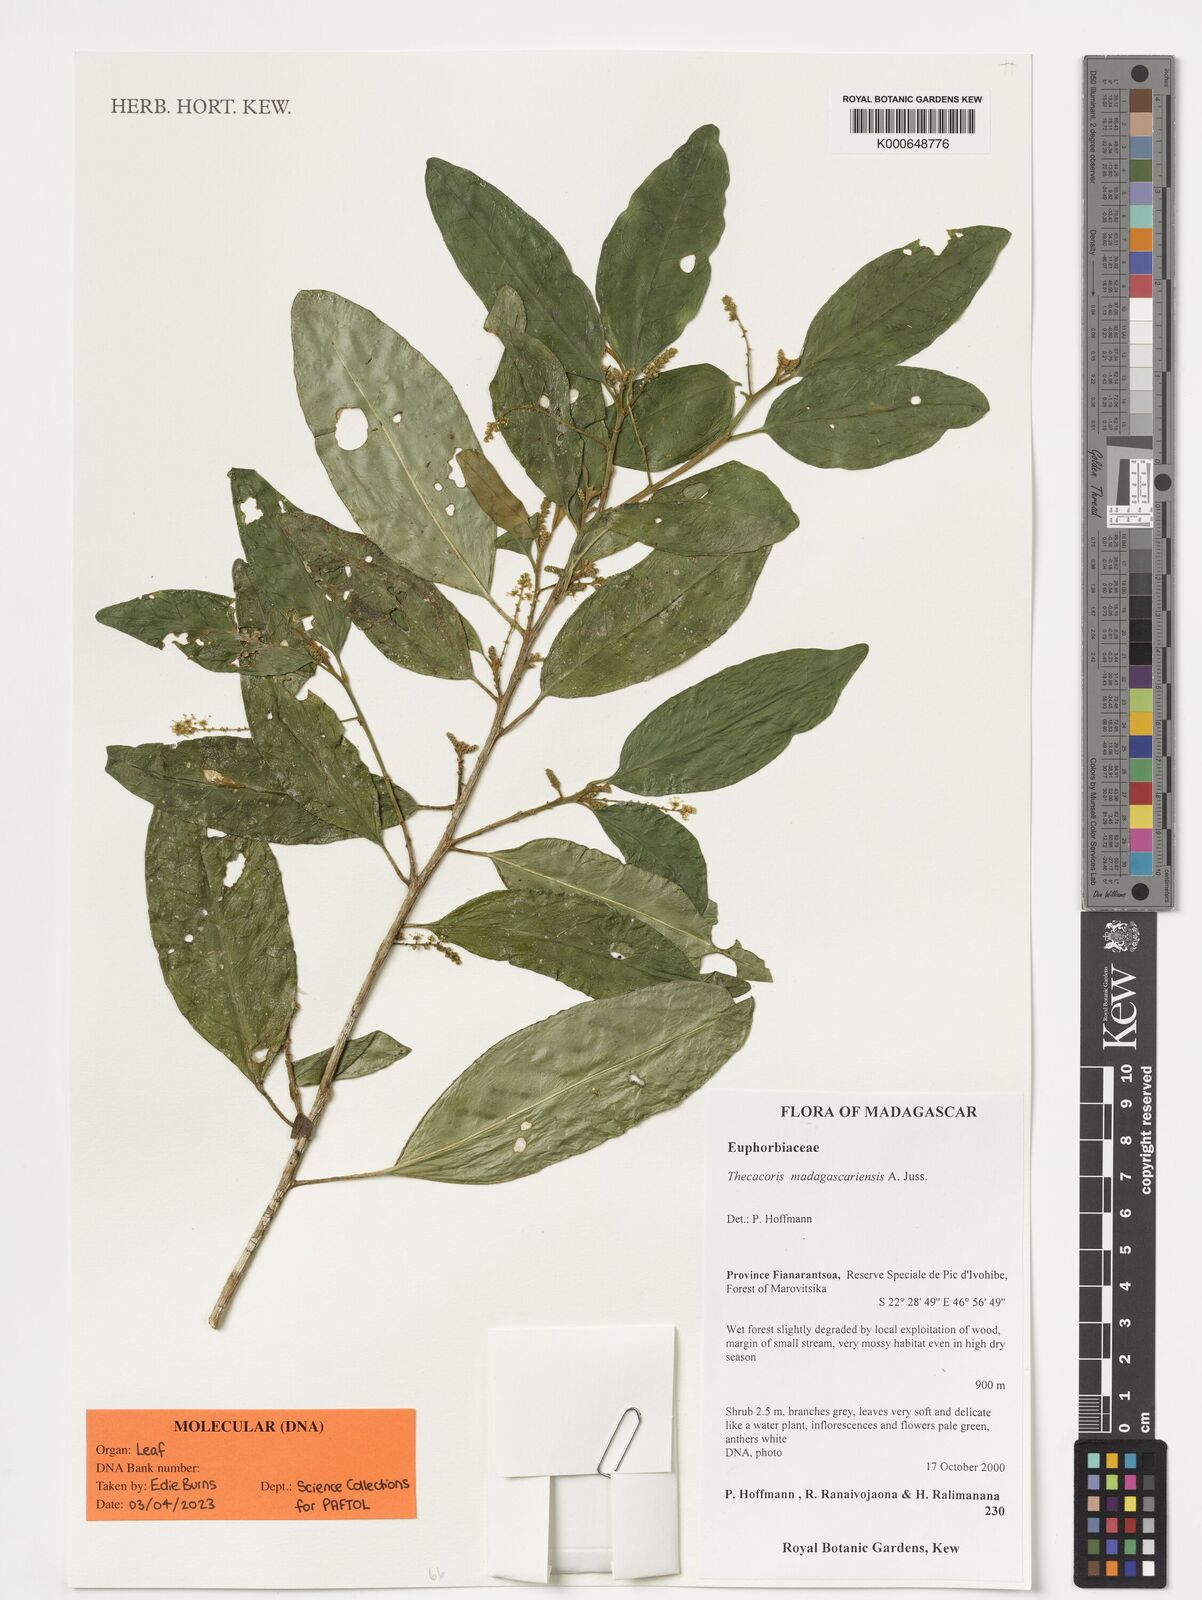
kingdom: Plantae
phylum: Tracheophyta
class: Magnoliopsida
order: Malpighiales
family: Phyllanthaceae
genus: Thecacoris
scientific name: Thecacoris madagascariensis
